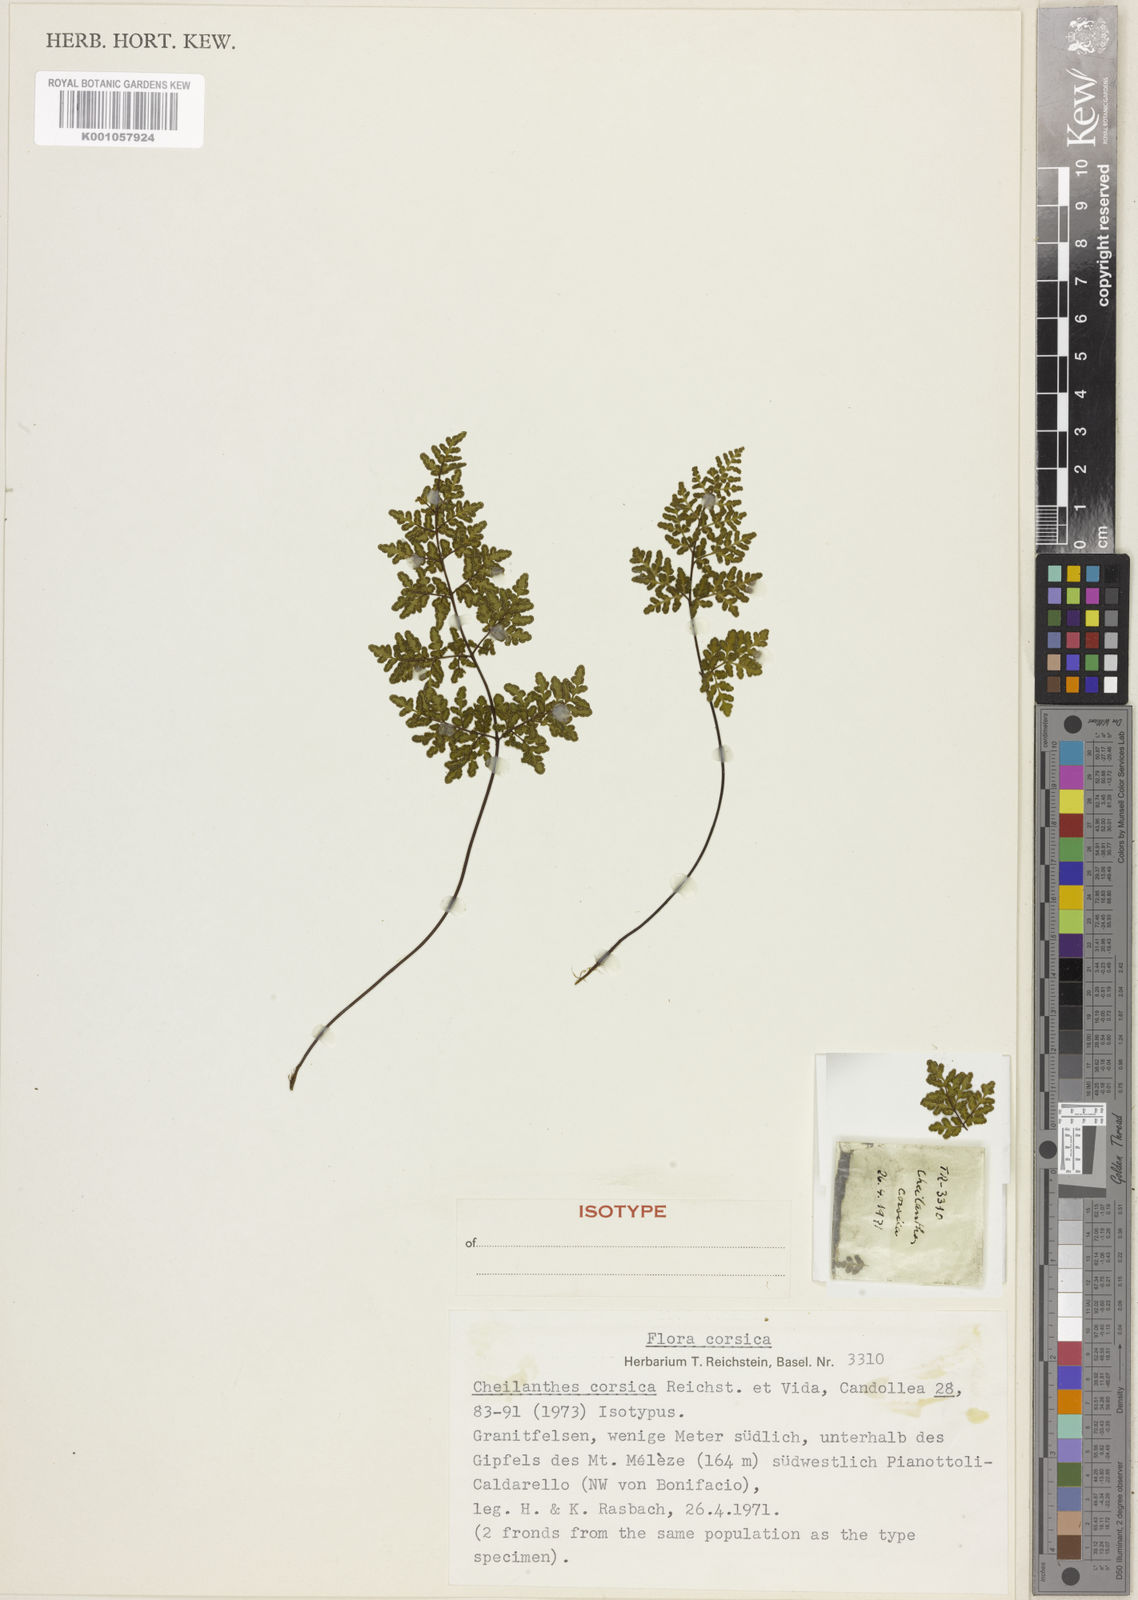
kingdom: Plantae
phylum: Tracheophyta
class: Polypodiopsida
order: Polypodiales
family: Pteridaceae
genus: Oeosporangium
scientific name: Oeosporangium tinaei
